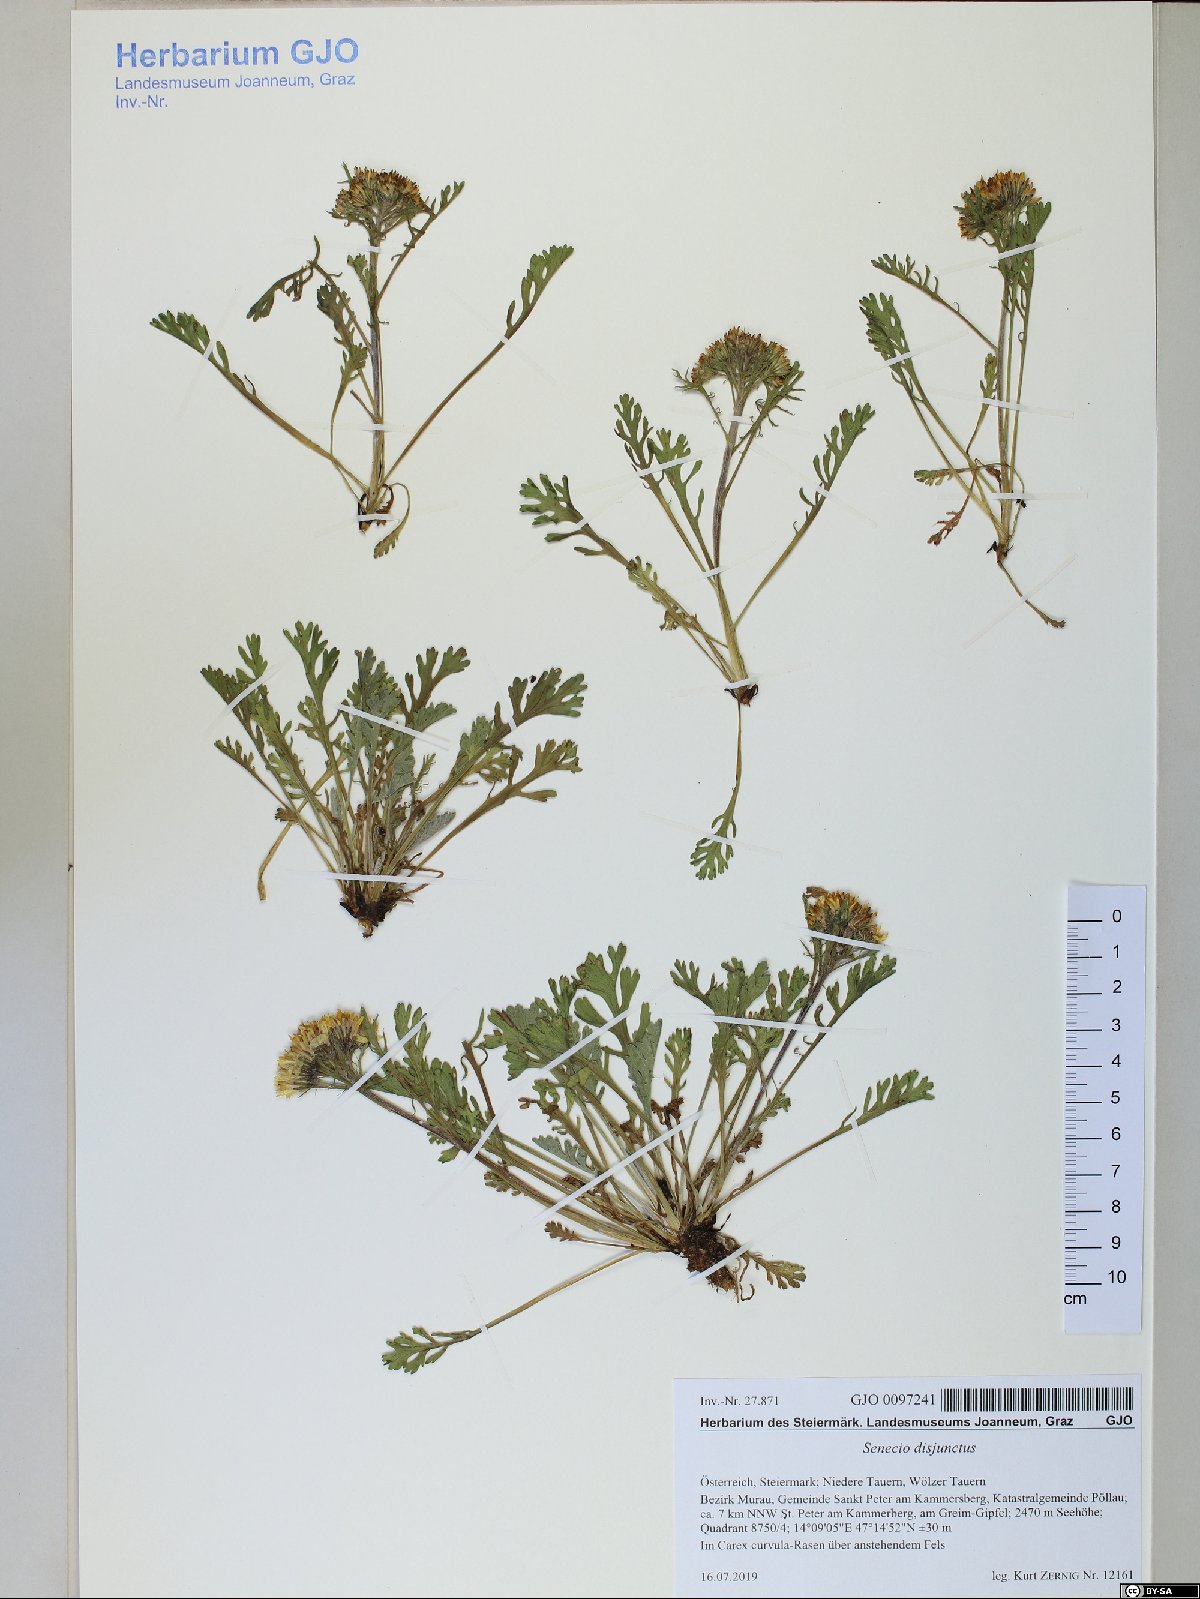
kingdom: Plantae
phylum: Tracheophyta
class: Magnoliopsida
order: Asterales
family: Asteraceae
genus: Jacobaea
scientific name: Jacobaea disjuncta
